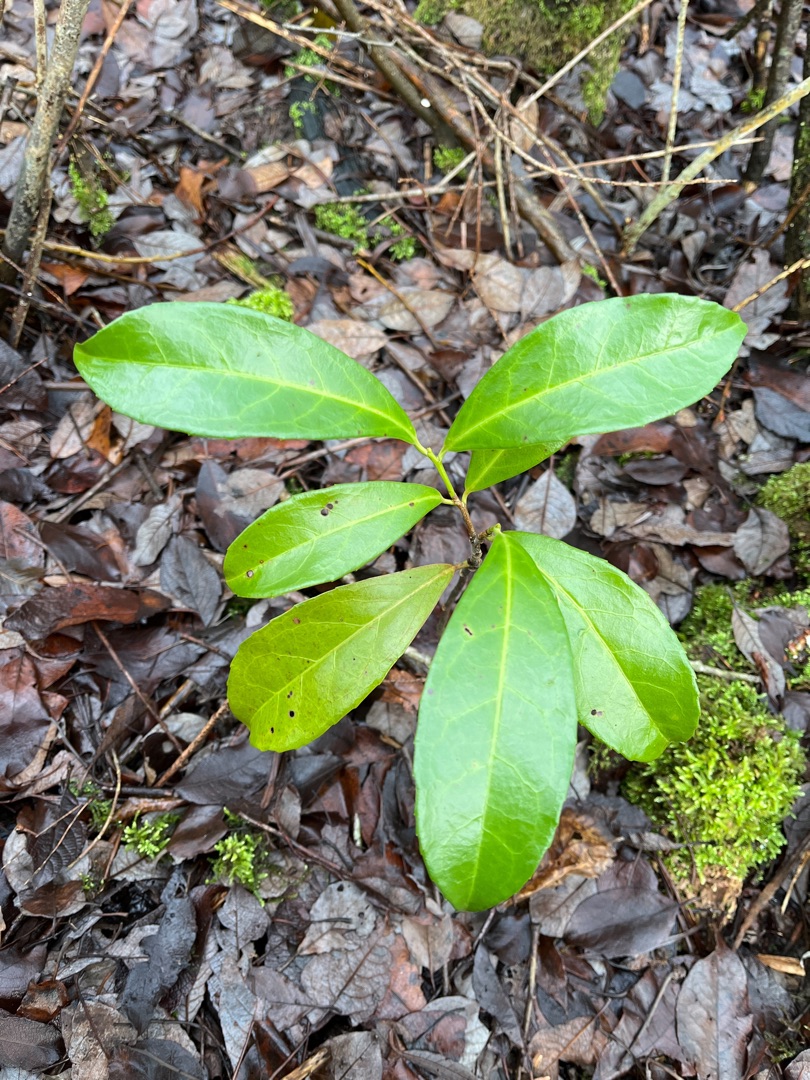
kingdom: Plantae
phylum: Tracheophyta
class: Magnoliopsida
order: Rosales
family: Rosaceae
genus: Prunus
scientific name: Prunus laurocerasus
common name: Laurbærkirsebær
